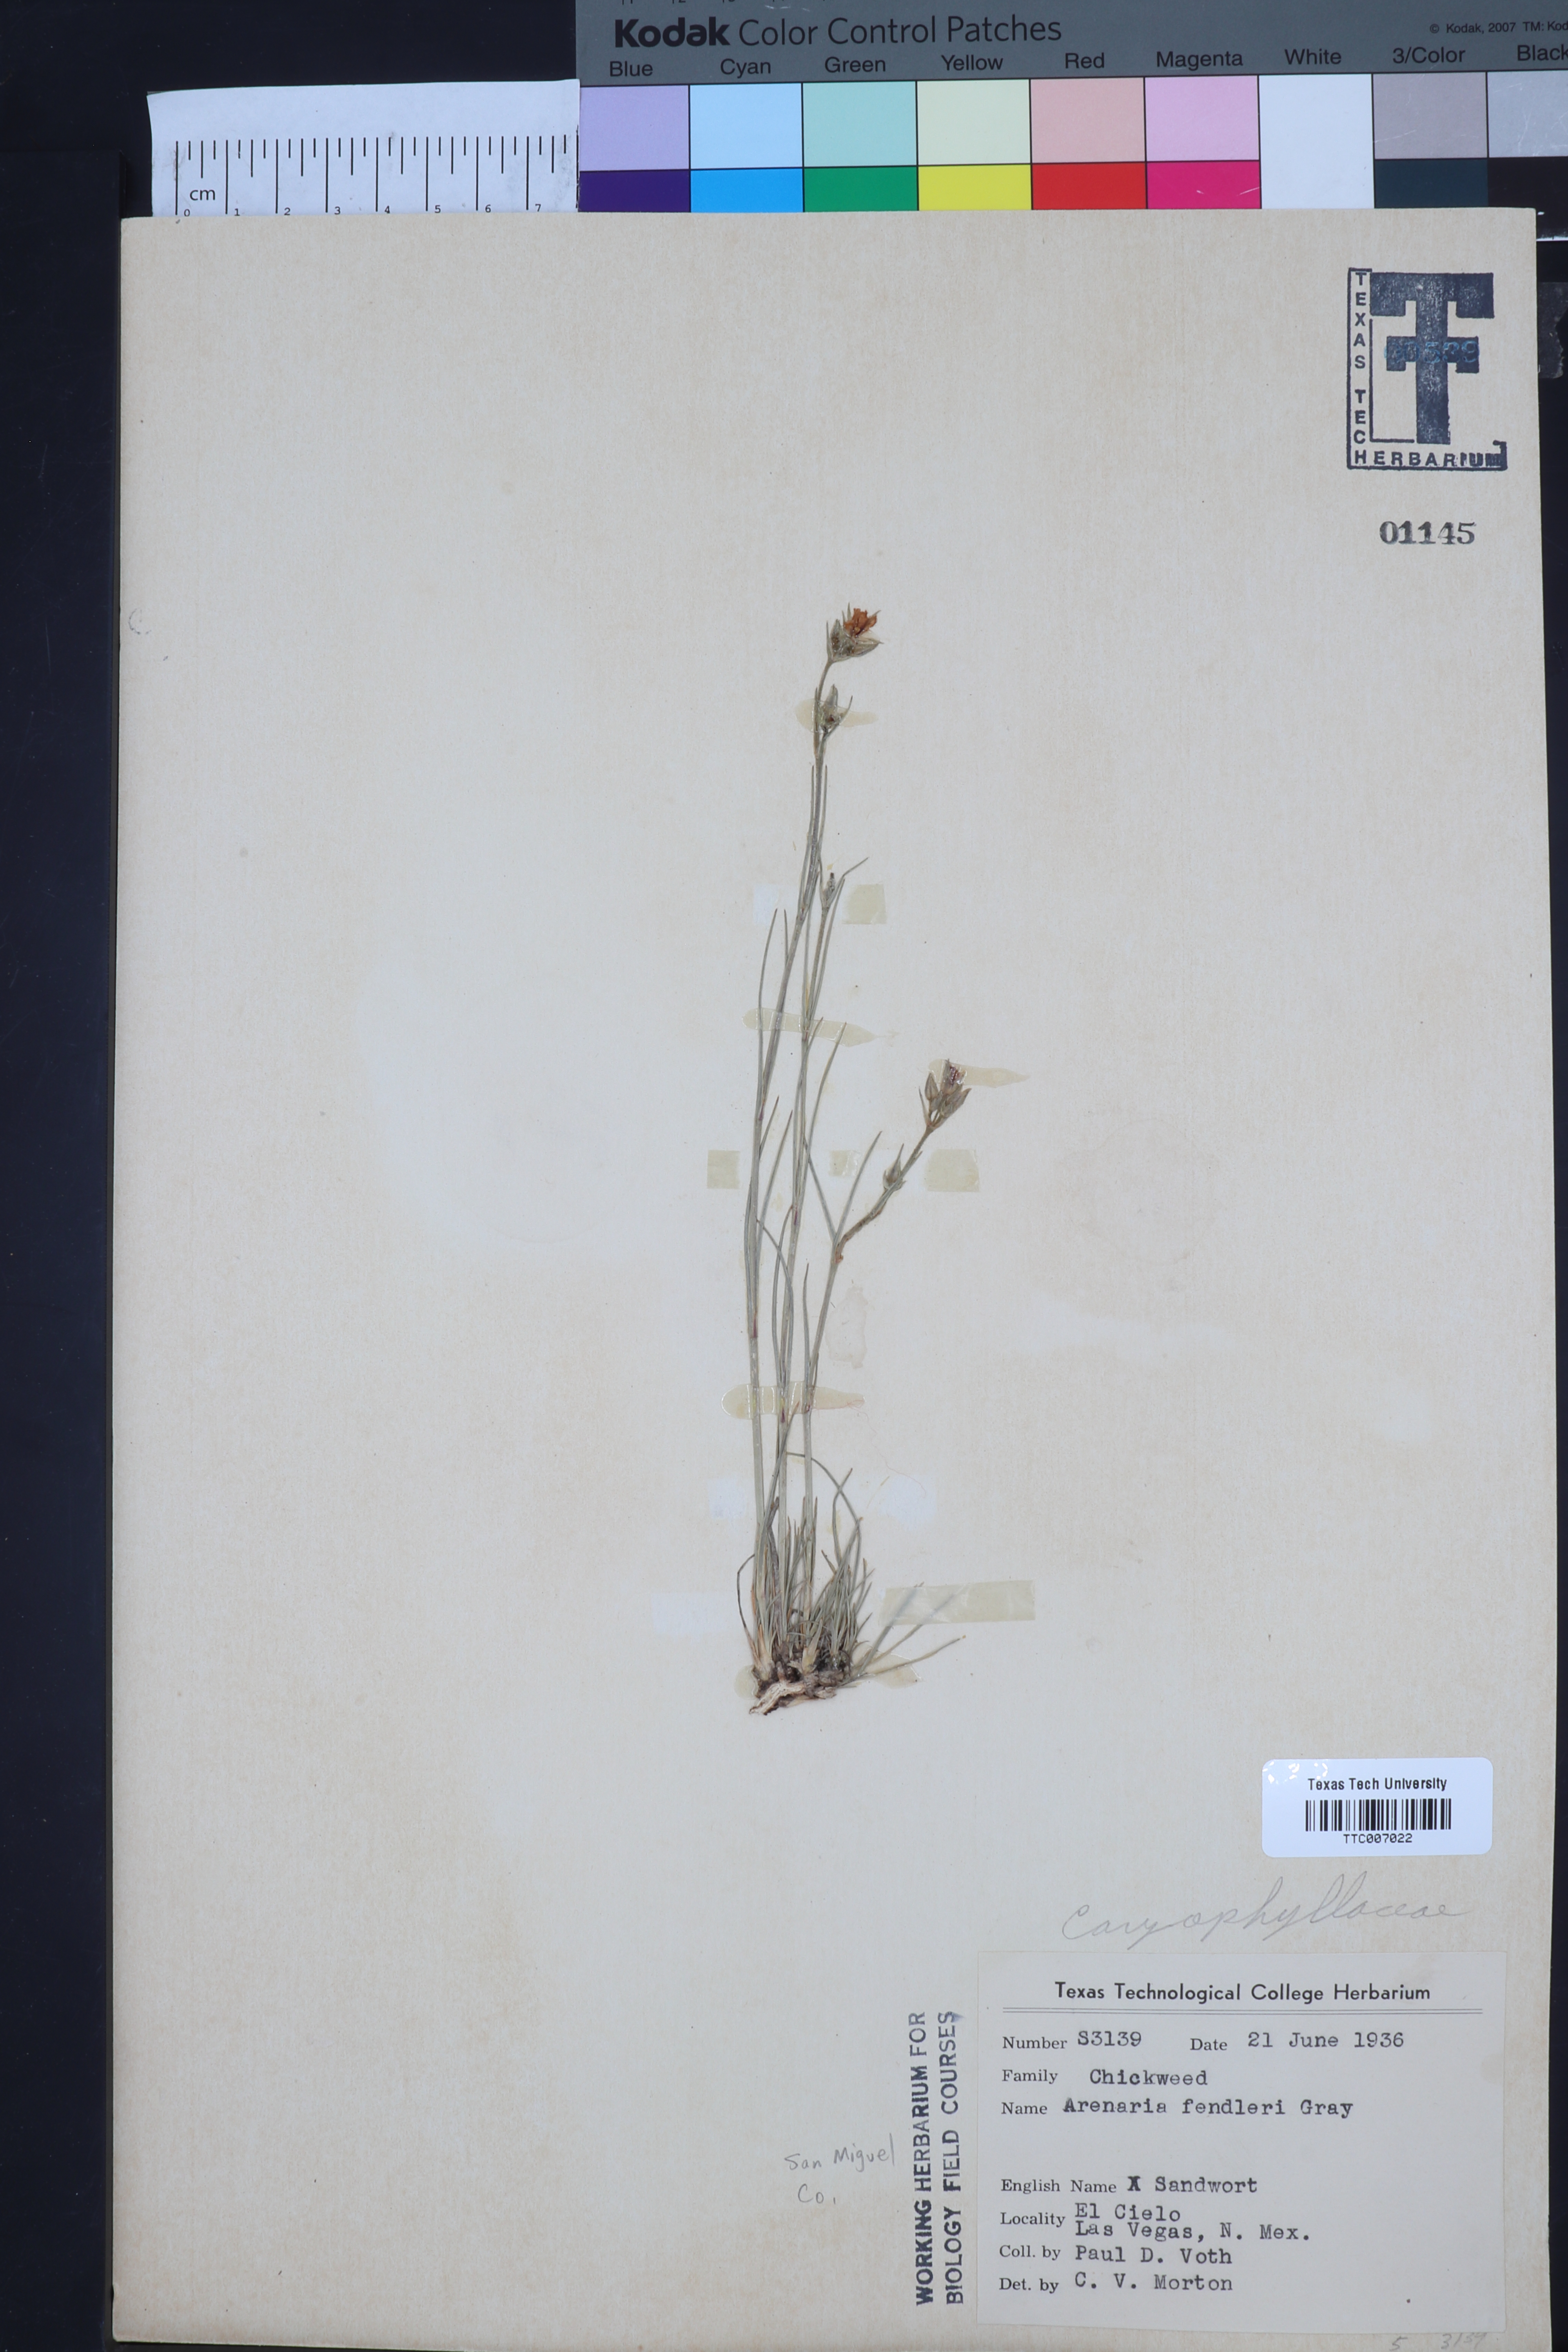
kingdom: Plantae
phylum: Tracheophyta
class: Magnoliopsida
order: Caryophyllales
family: Caryophyllaceae
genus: Eremogone
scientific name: Eremogone fendleri
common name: Fendler's sandwort
